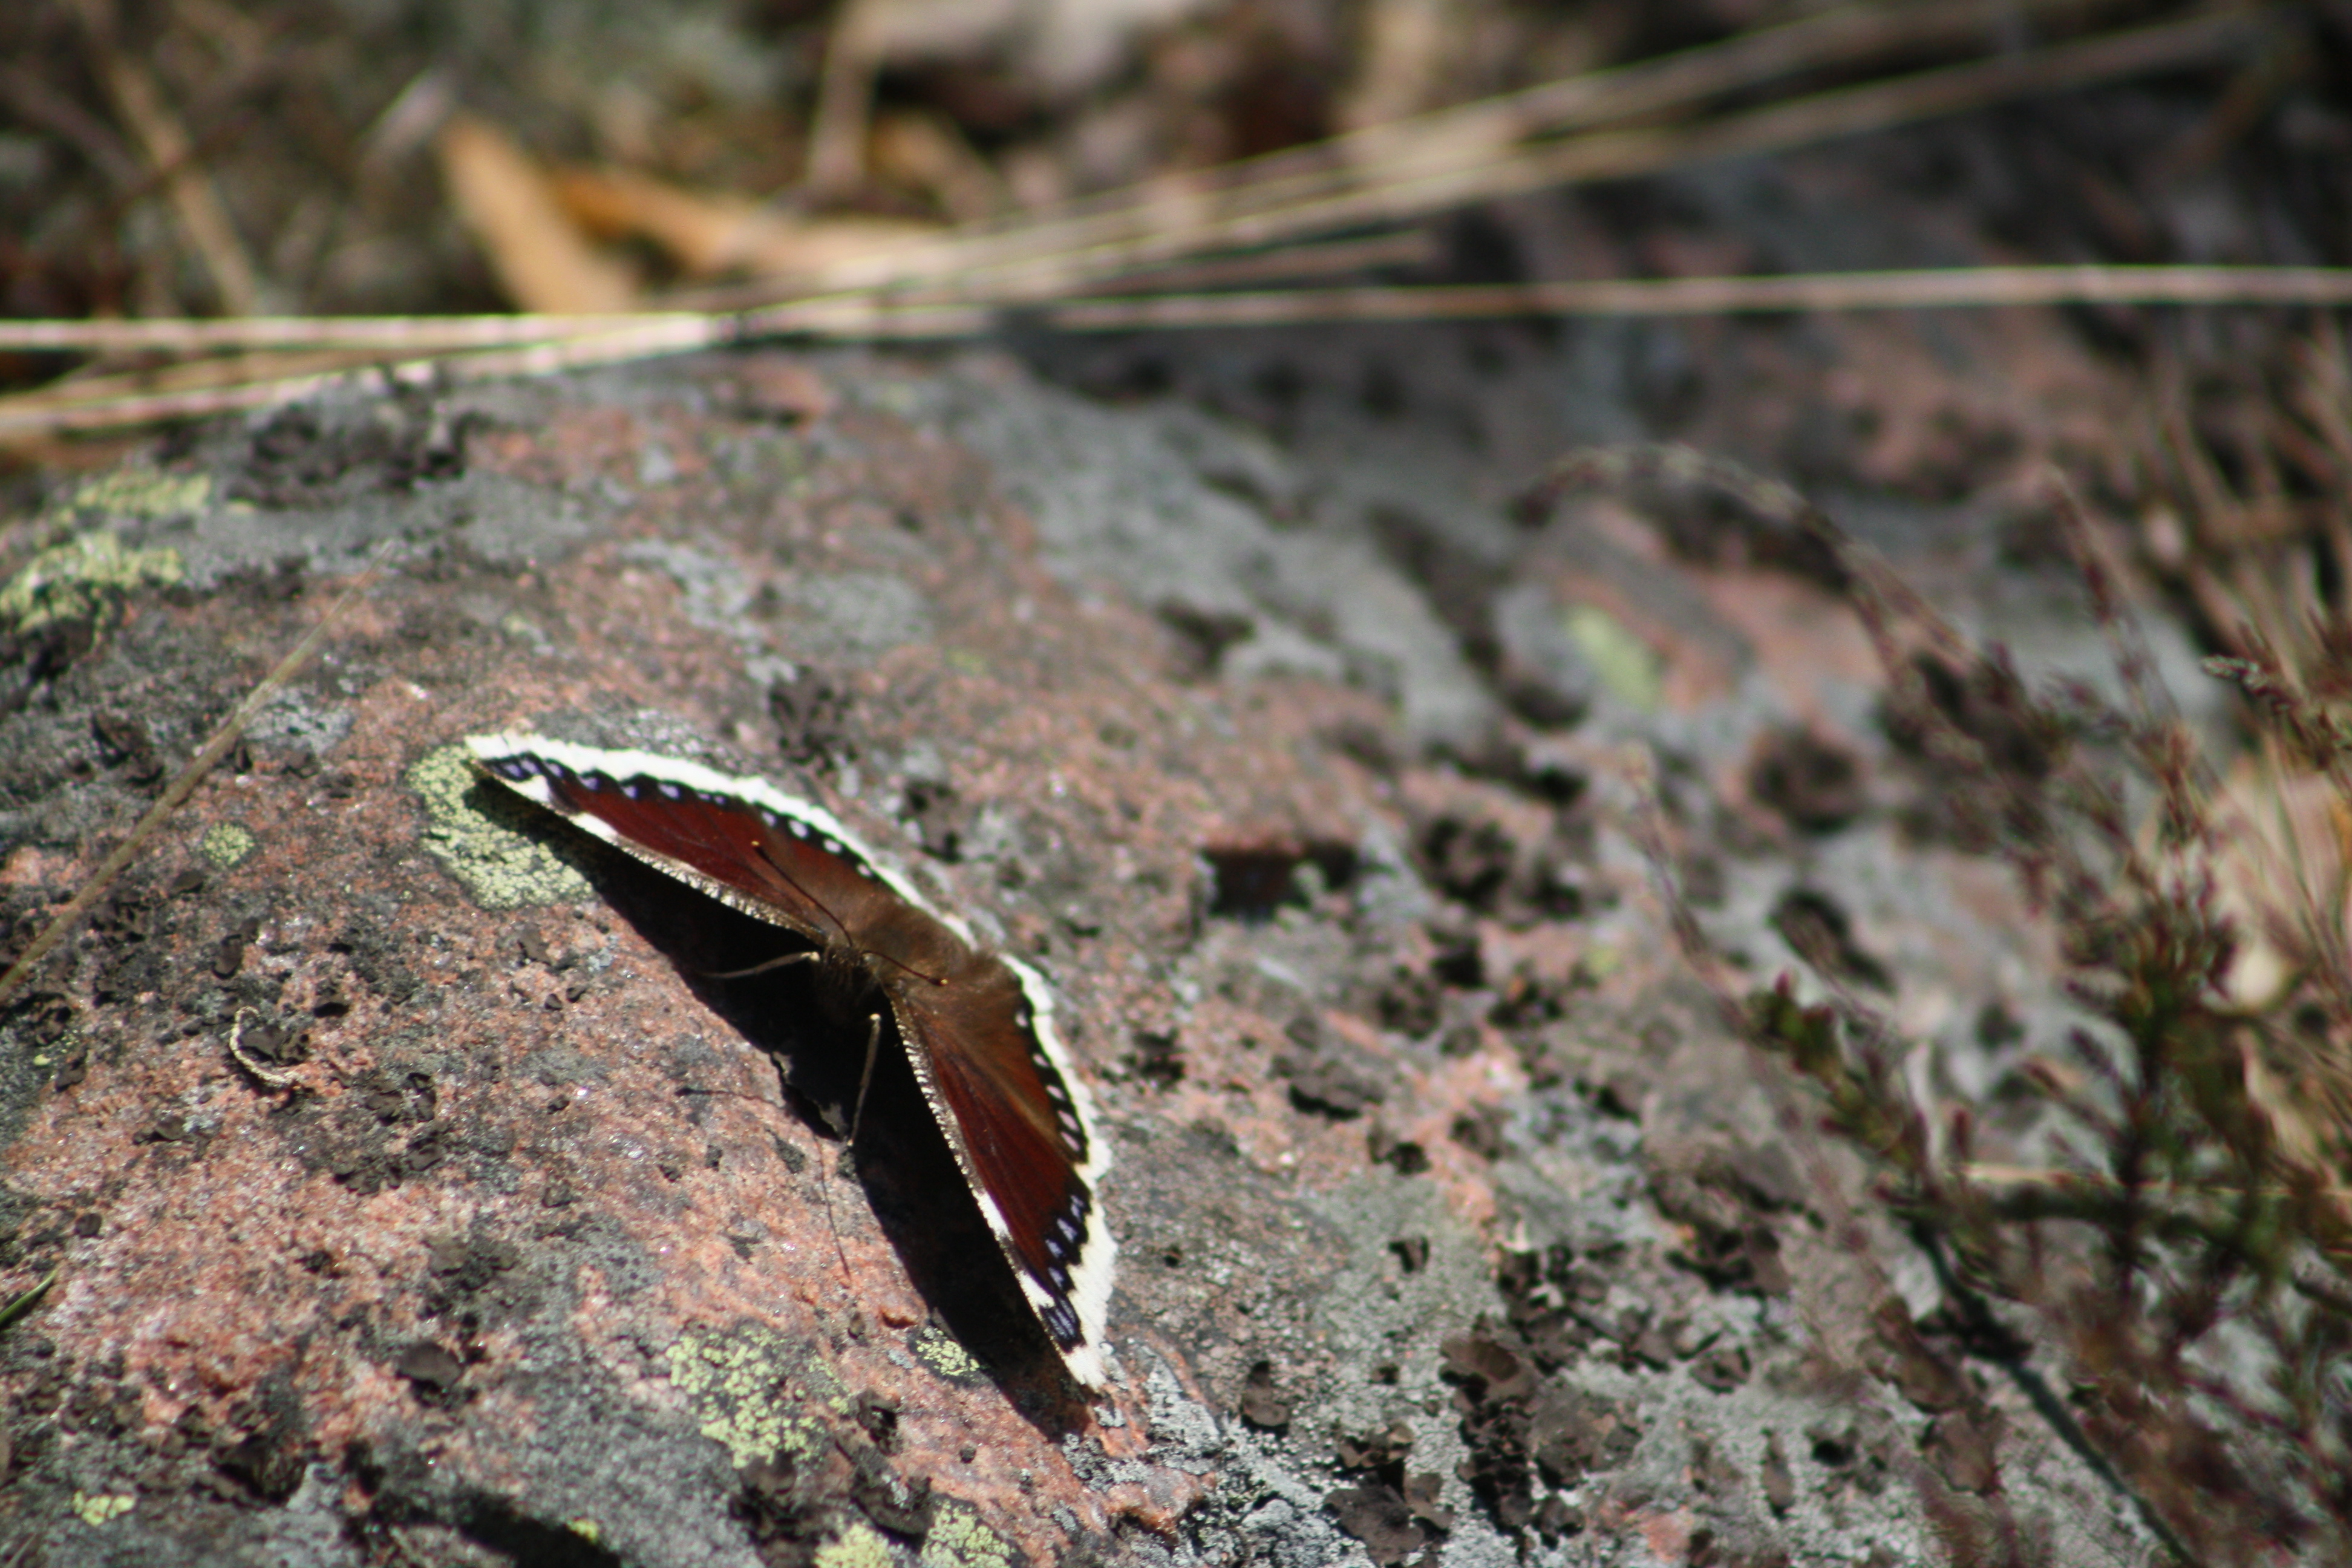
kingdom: Animalia
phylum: Arthropoda
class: Insecta
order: Lepidoptera
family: Nymphalidae
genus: Nymphalis
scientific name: Nymphalis antiopa
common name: Camberwell beauty
